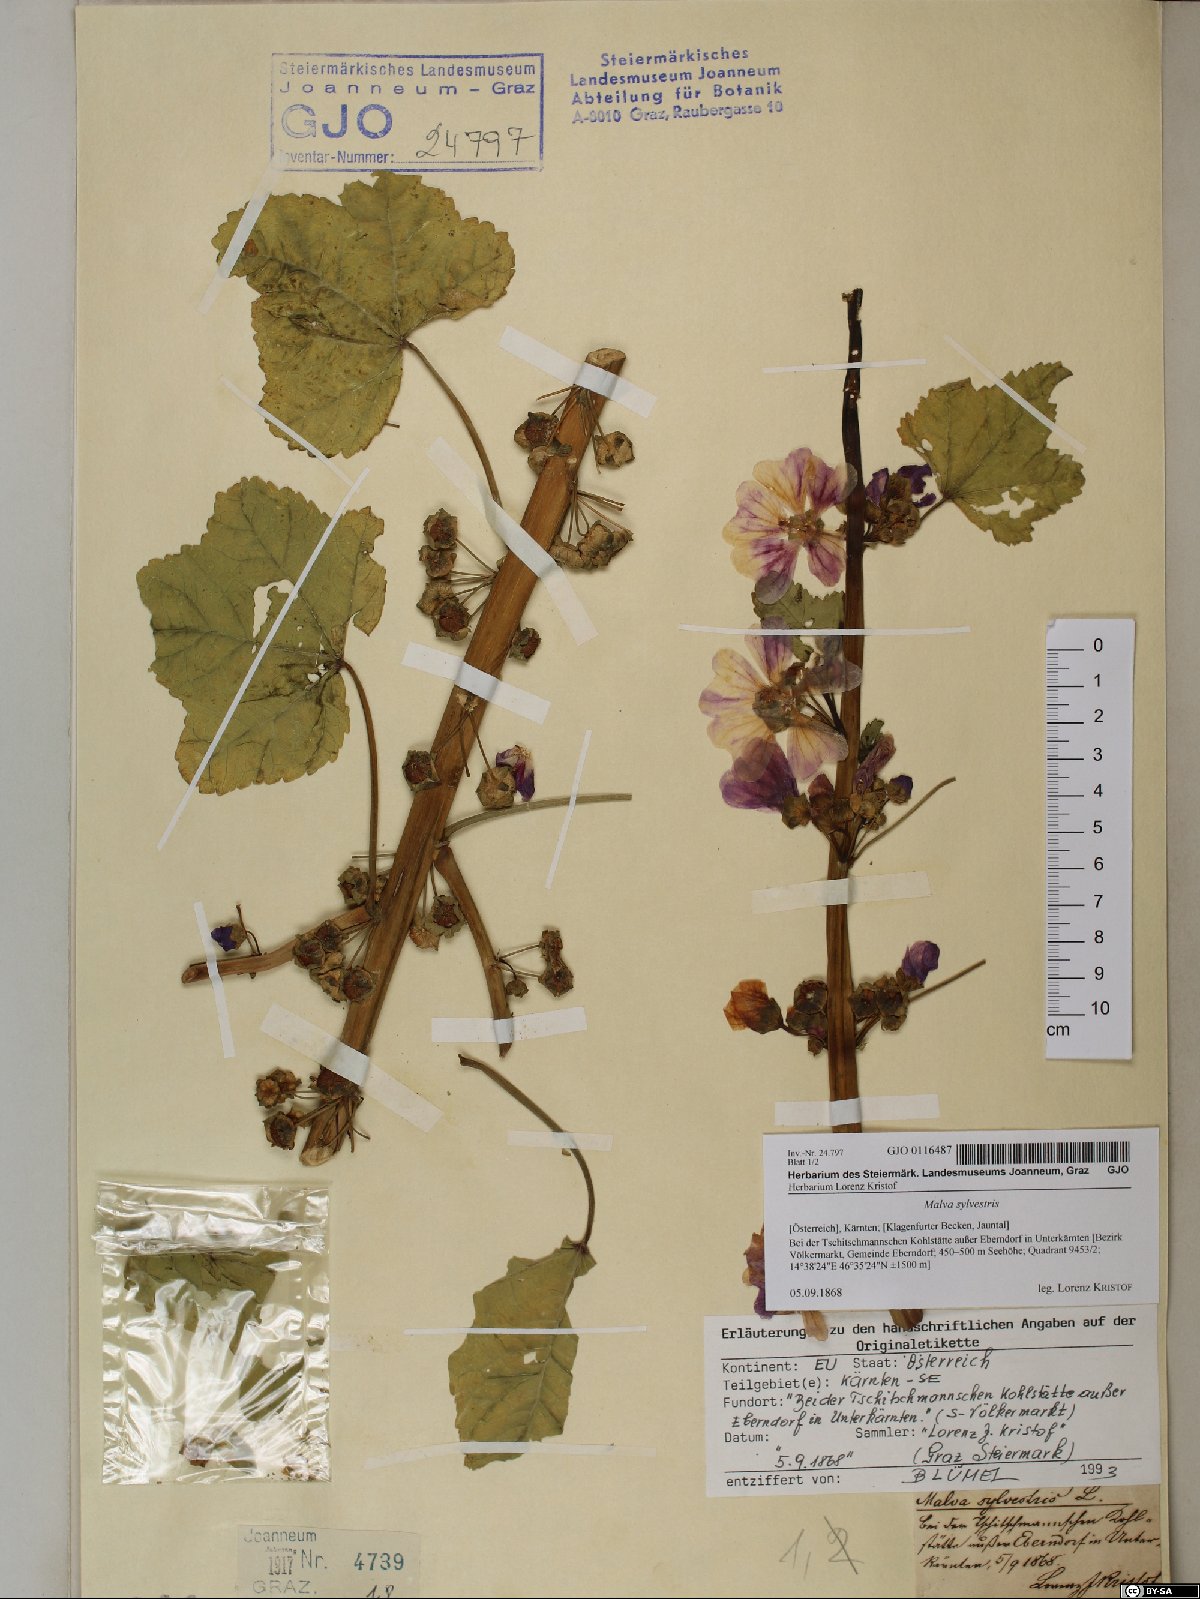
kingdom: Plantae
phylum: Tracheophyta
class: Magnoliopsida
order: Malvales
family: Malvaceae
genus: Malva
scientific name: Malva sylvestris
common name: Common mallow
